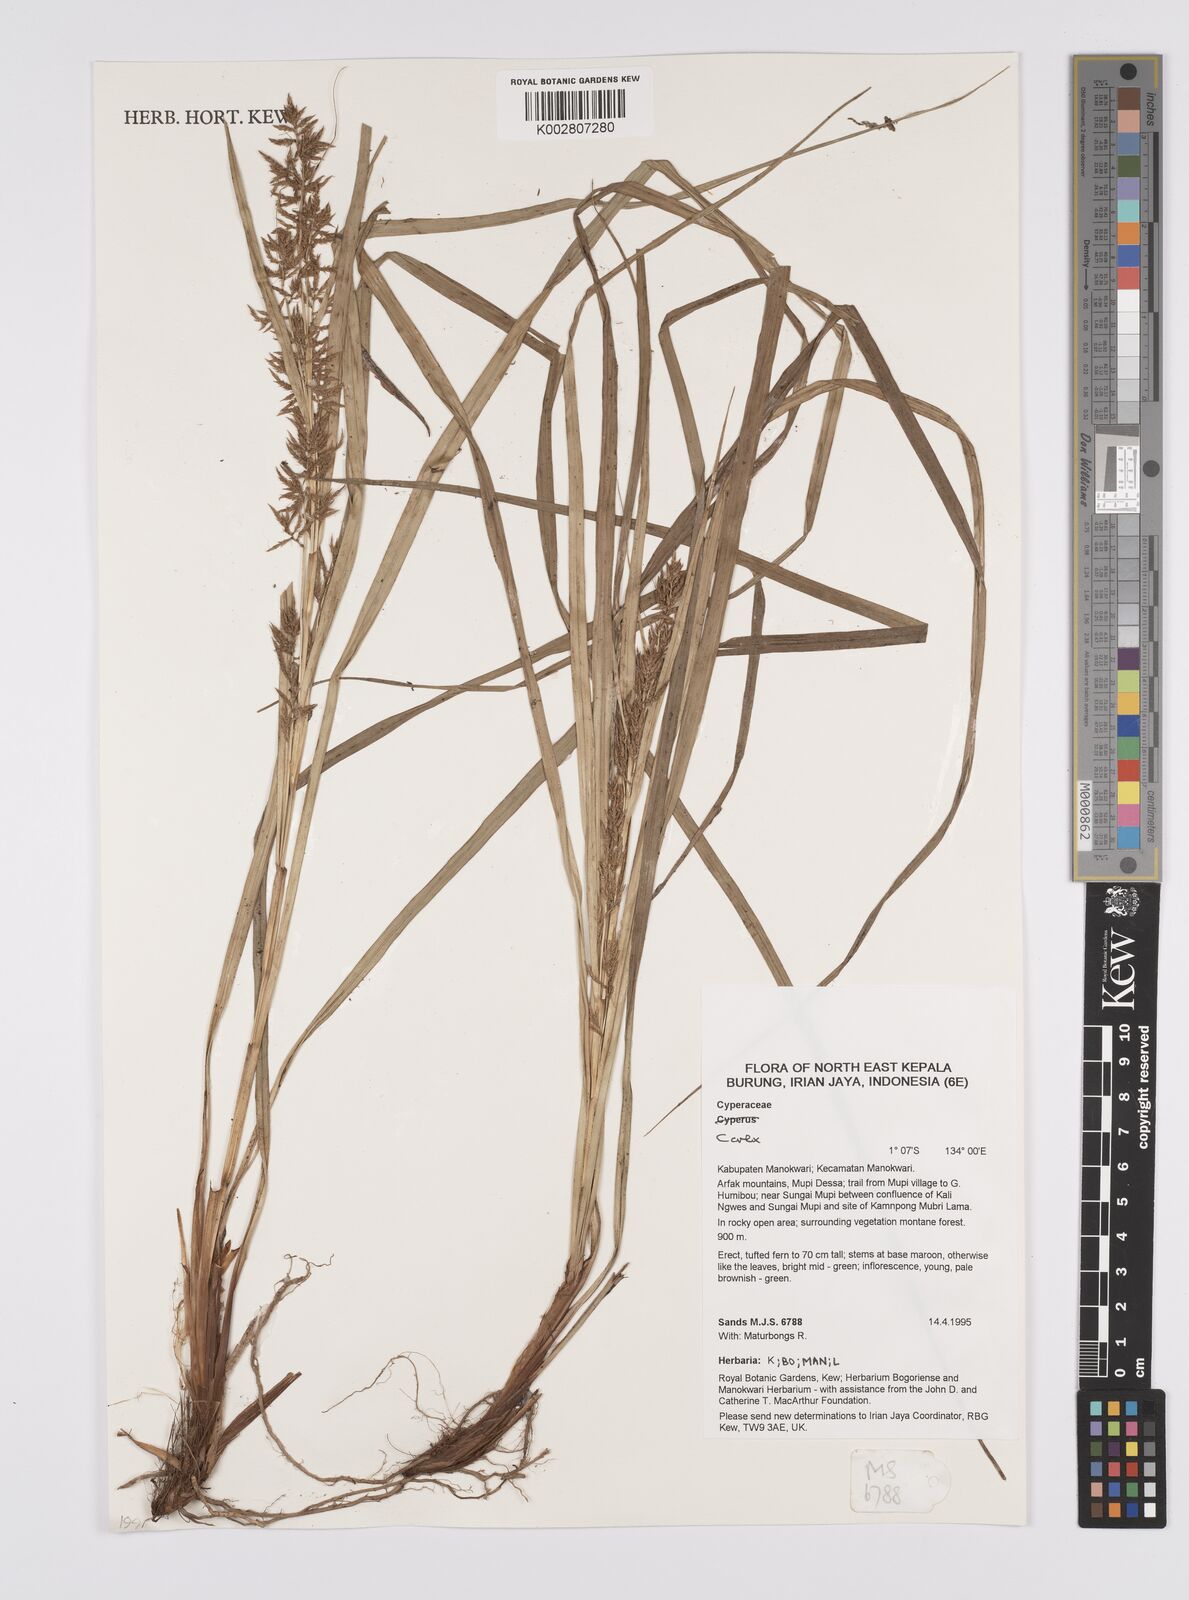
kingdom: Plantae
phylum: Tracheophyta
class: Liliopsida
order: Poales
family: Cyperaceae
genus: Carex
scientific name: Carex
